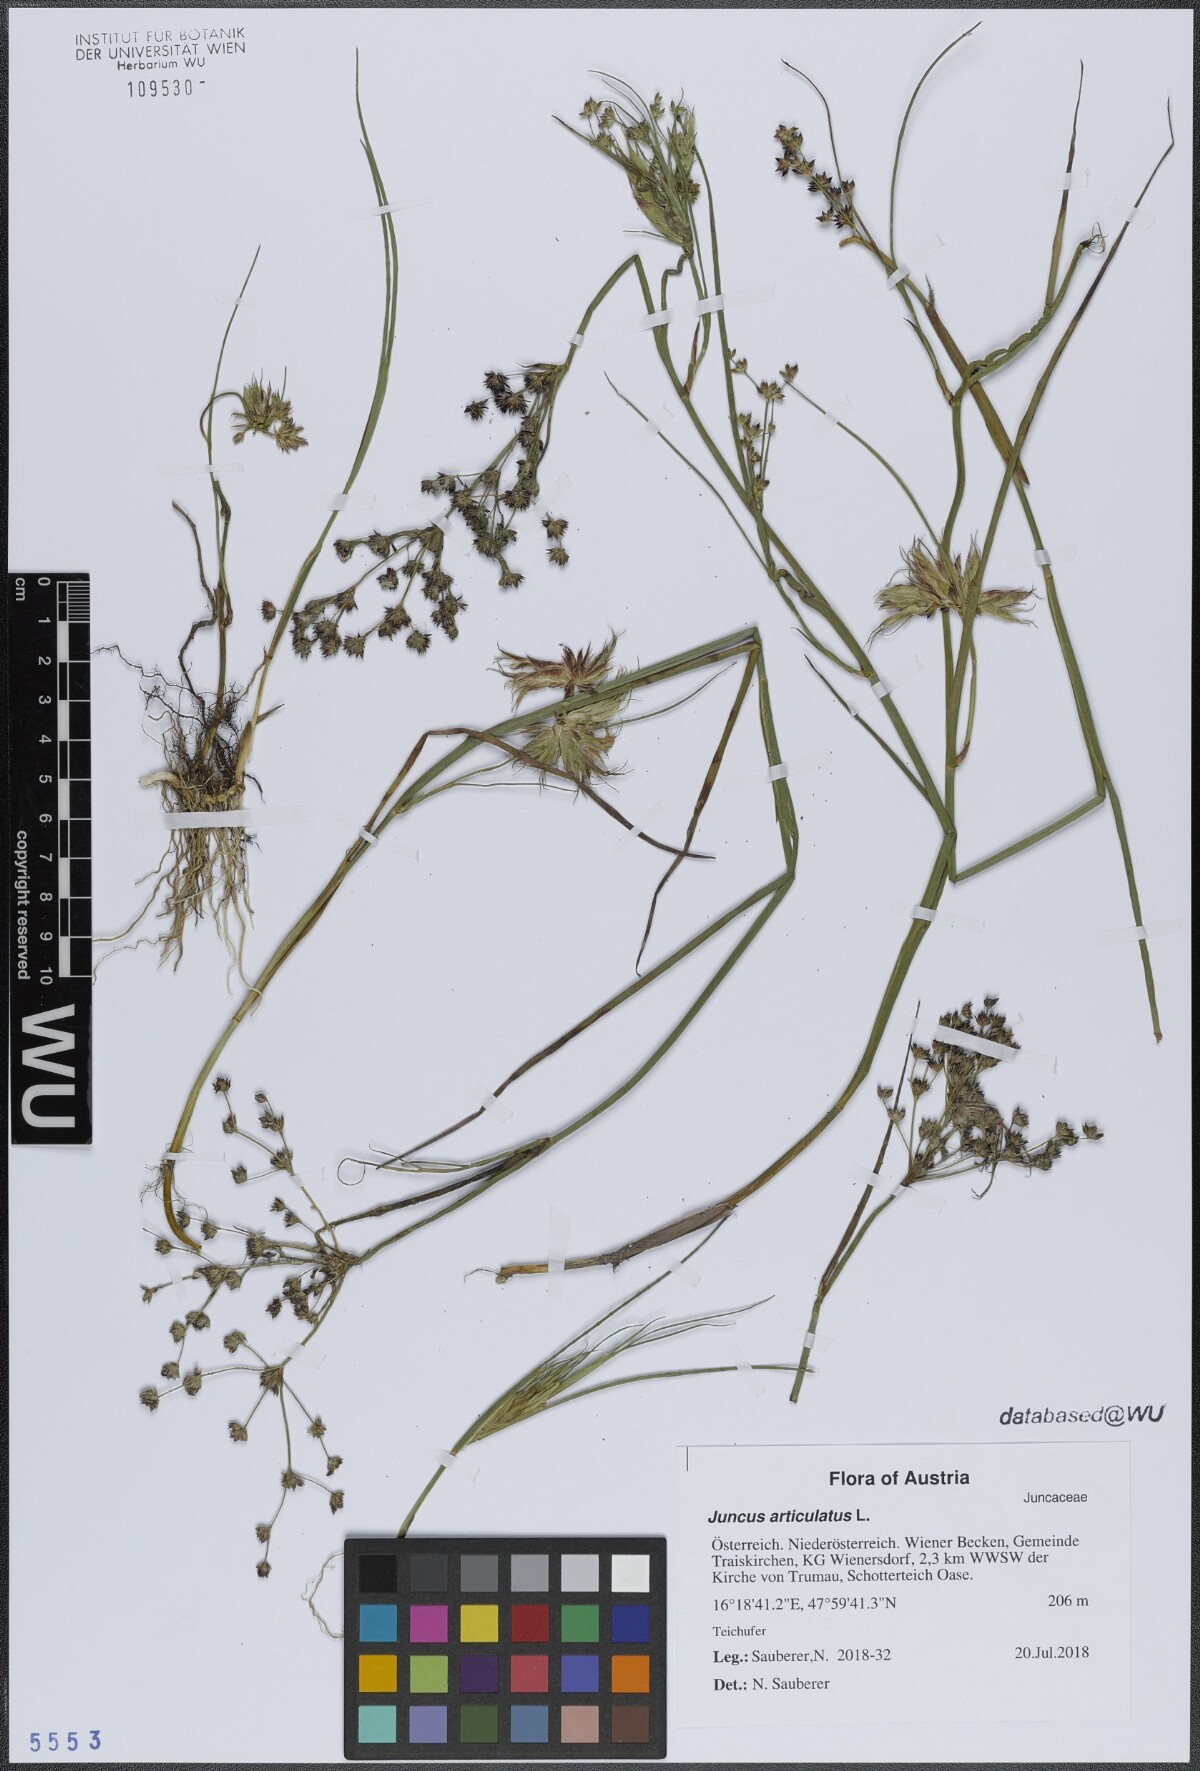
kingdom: Plantae
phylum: Tracheophyta
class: Liliopsida
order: Poales
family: Juncaceae
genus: Juncus
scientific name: Juncus articulatus
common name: Jointed rush
